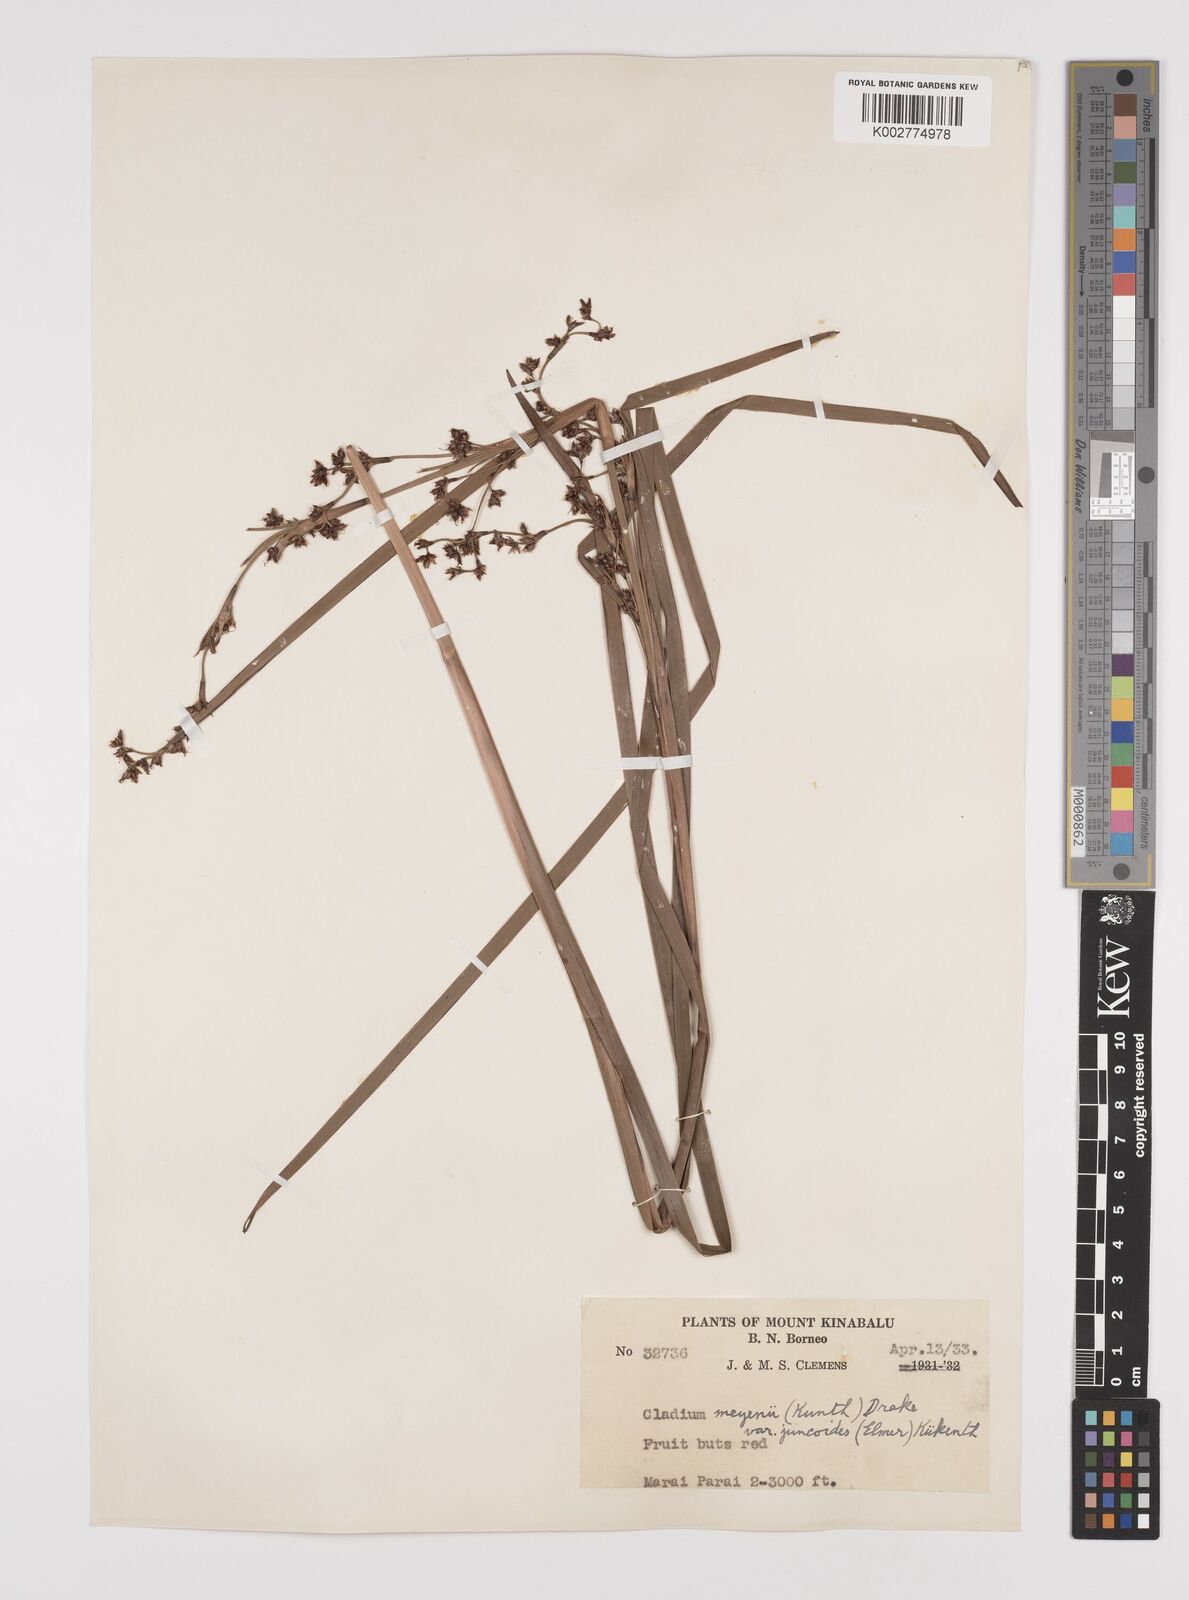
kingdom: Plantae
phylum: Tracheophyta
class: Liliopsida
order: Poales
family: Cyperaceae
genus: Machaerina
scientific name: Machaerina glomerata
